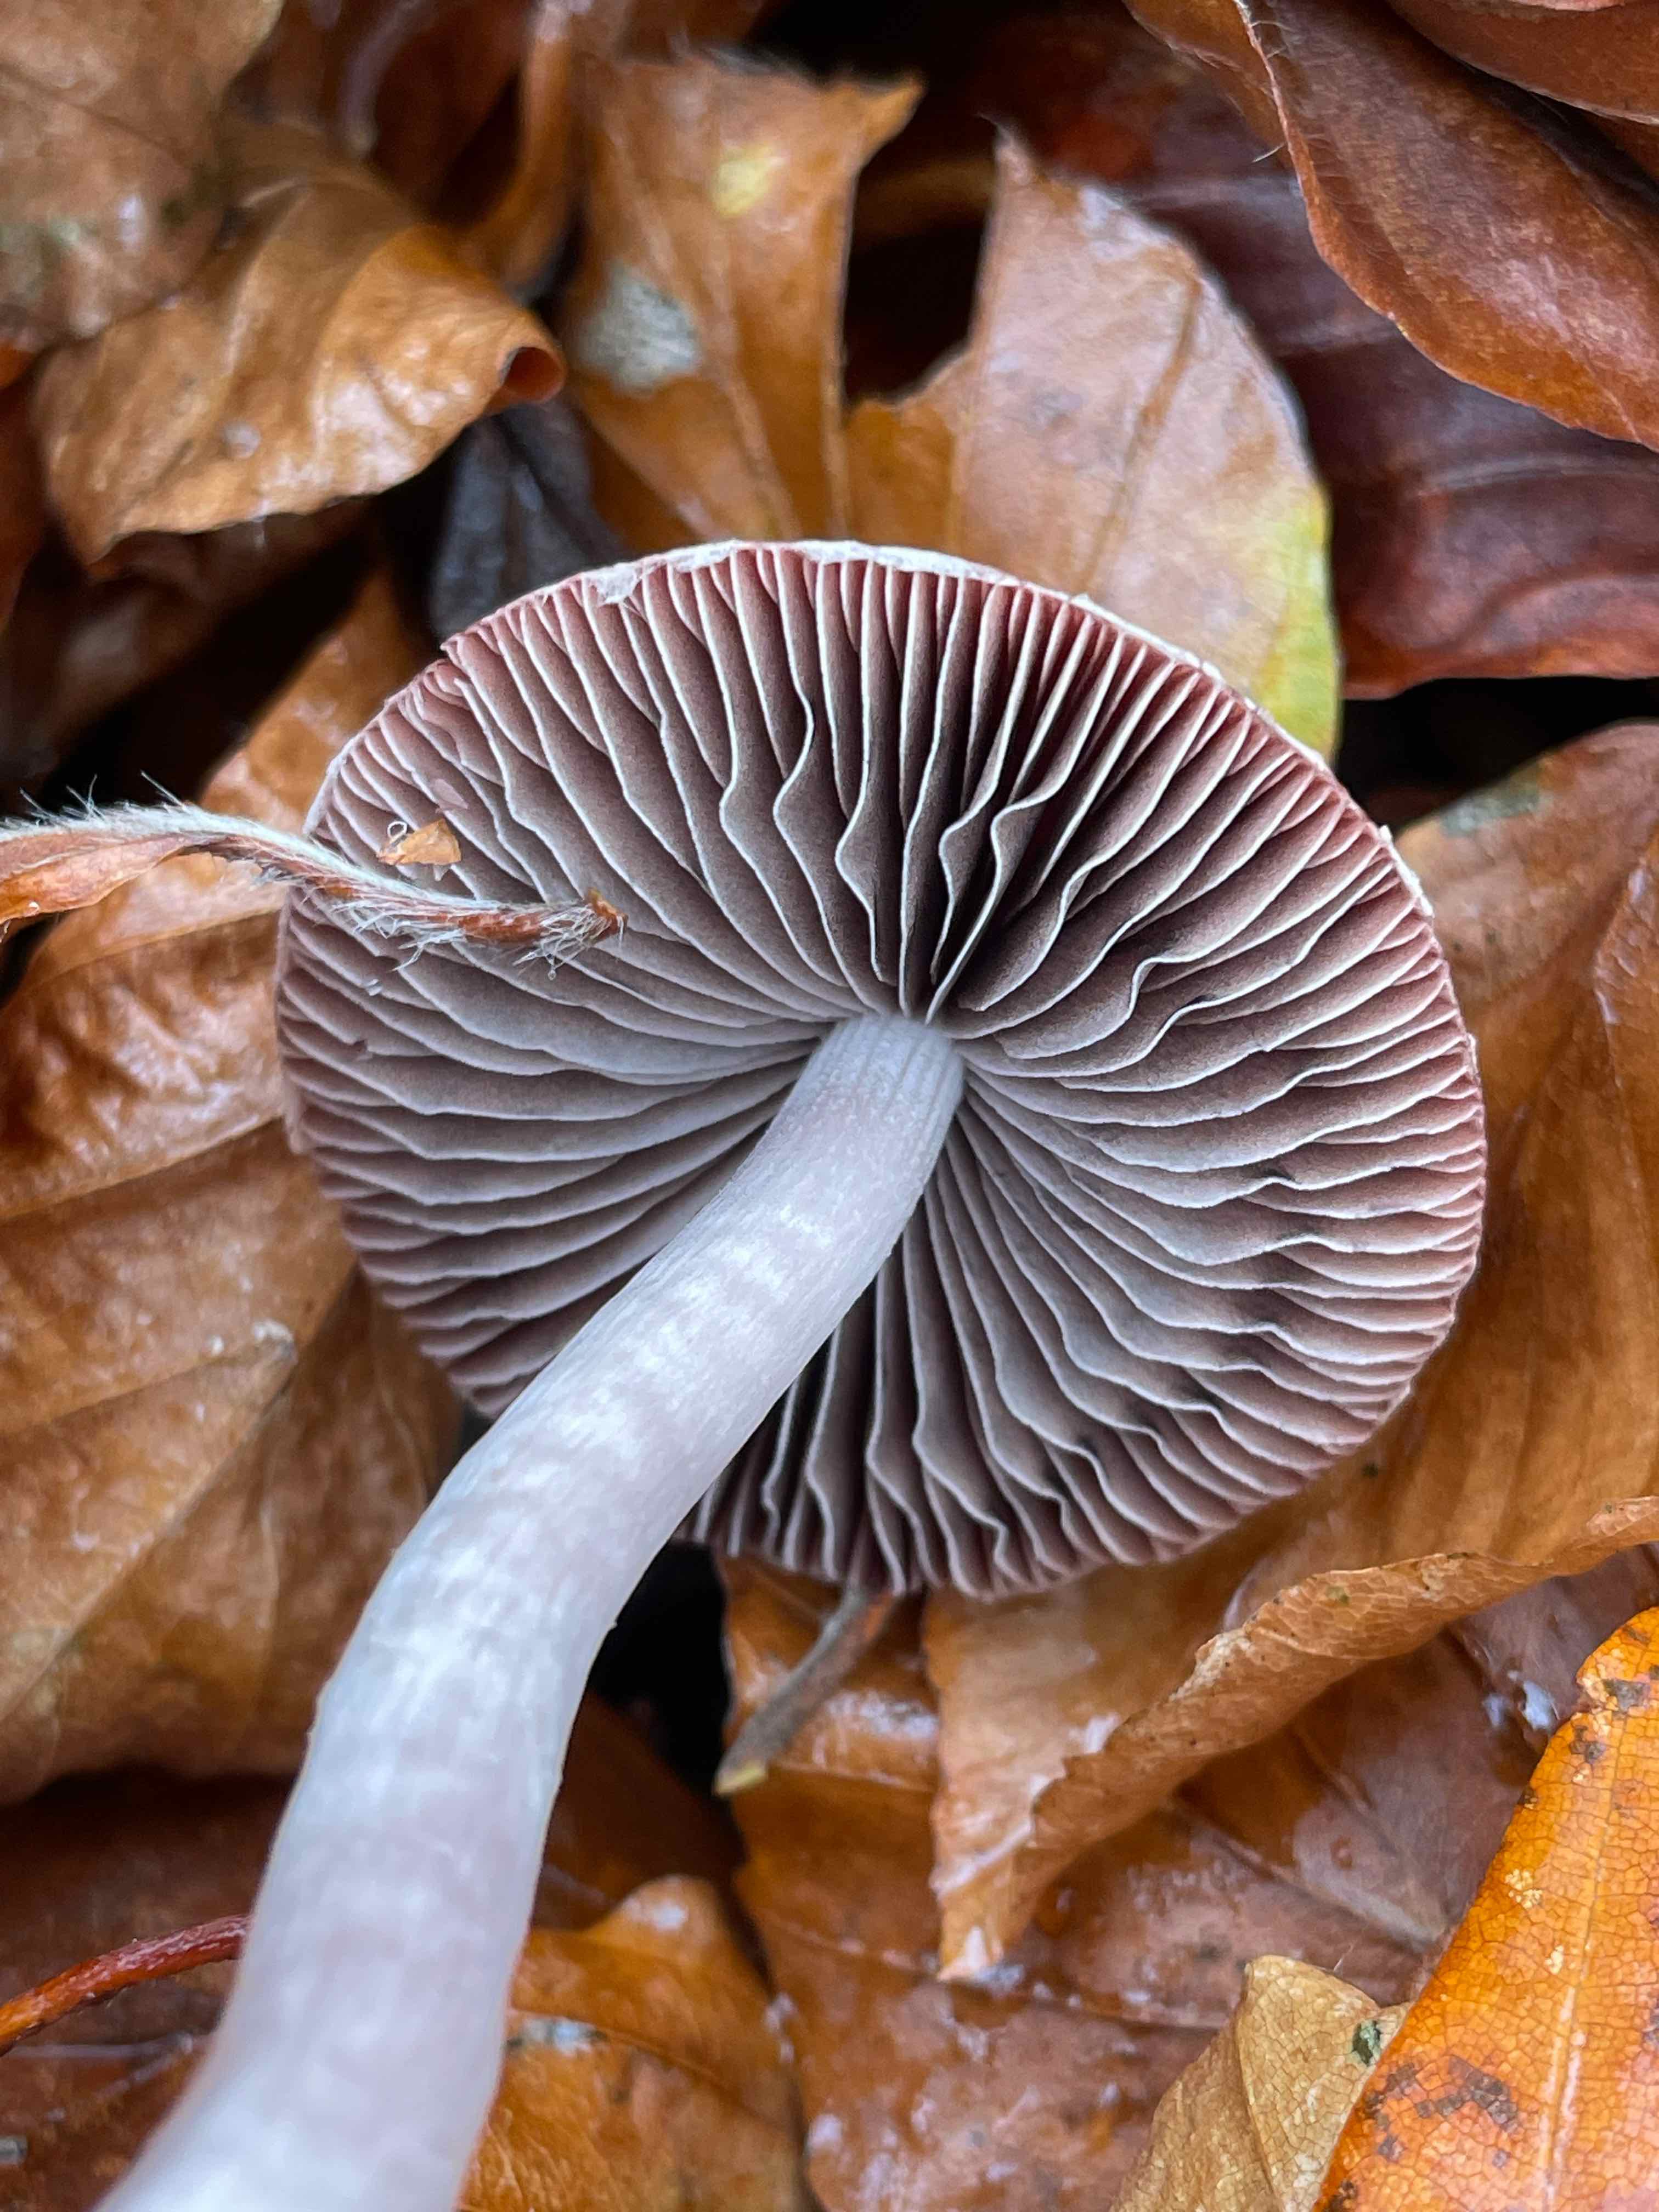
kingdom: Fungi
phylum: Basidiomycota
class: Agaricomycetes
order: Agaricales
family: Psathyrellaceae
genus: Psathyrella
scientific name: Psathyrella bipellis
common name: vinrød mørkhat
